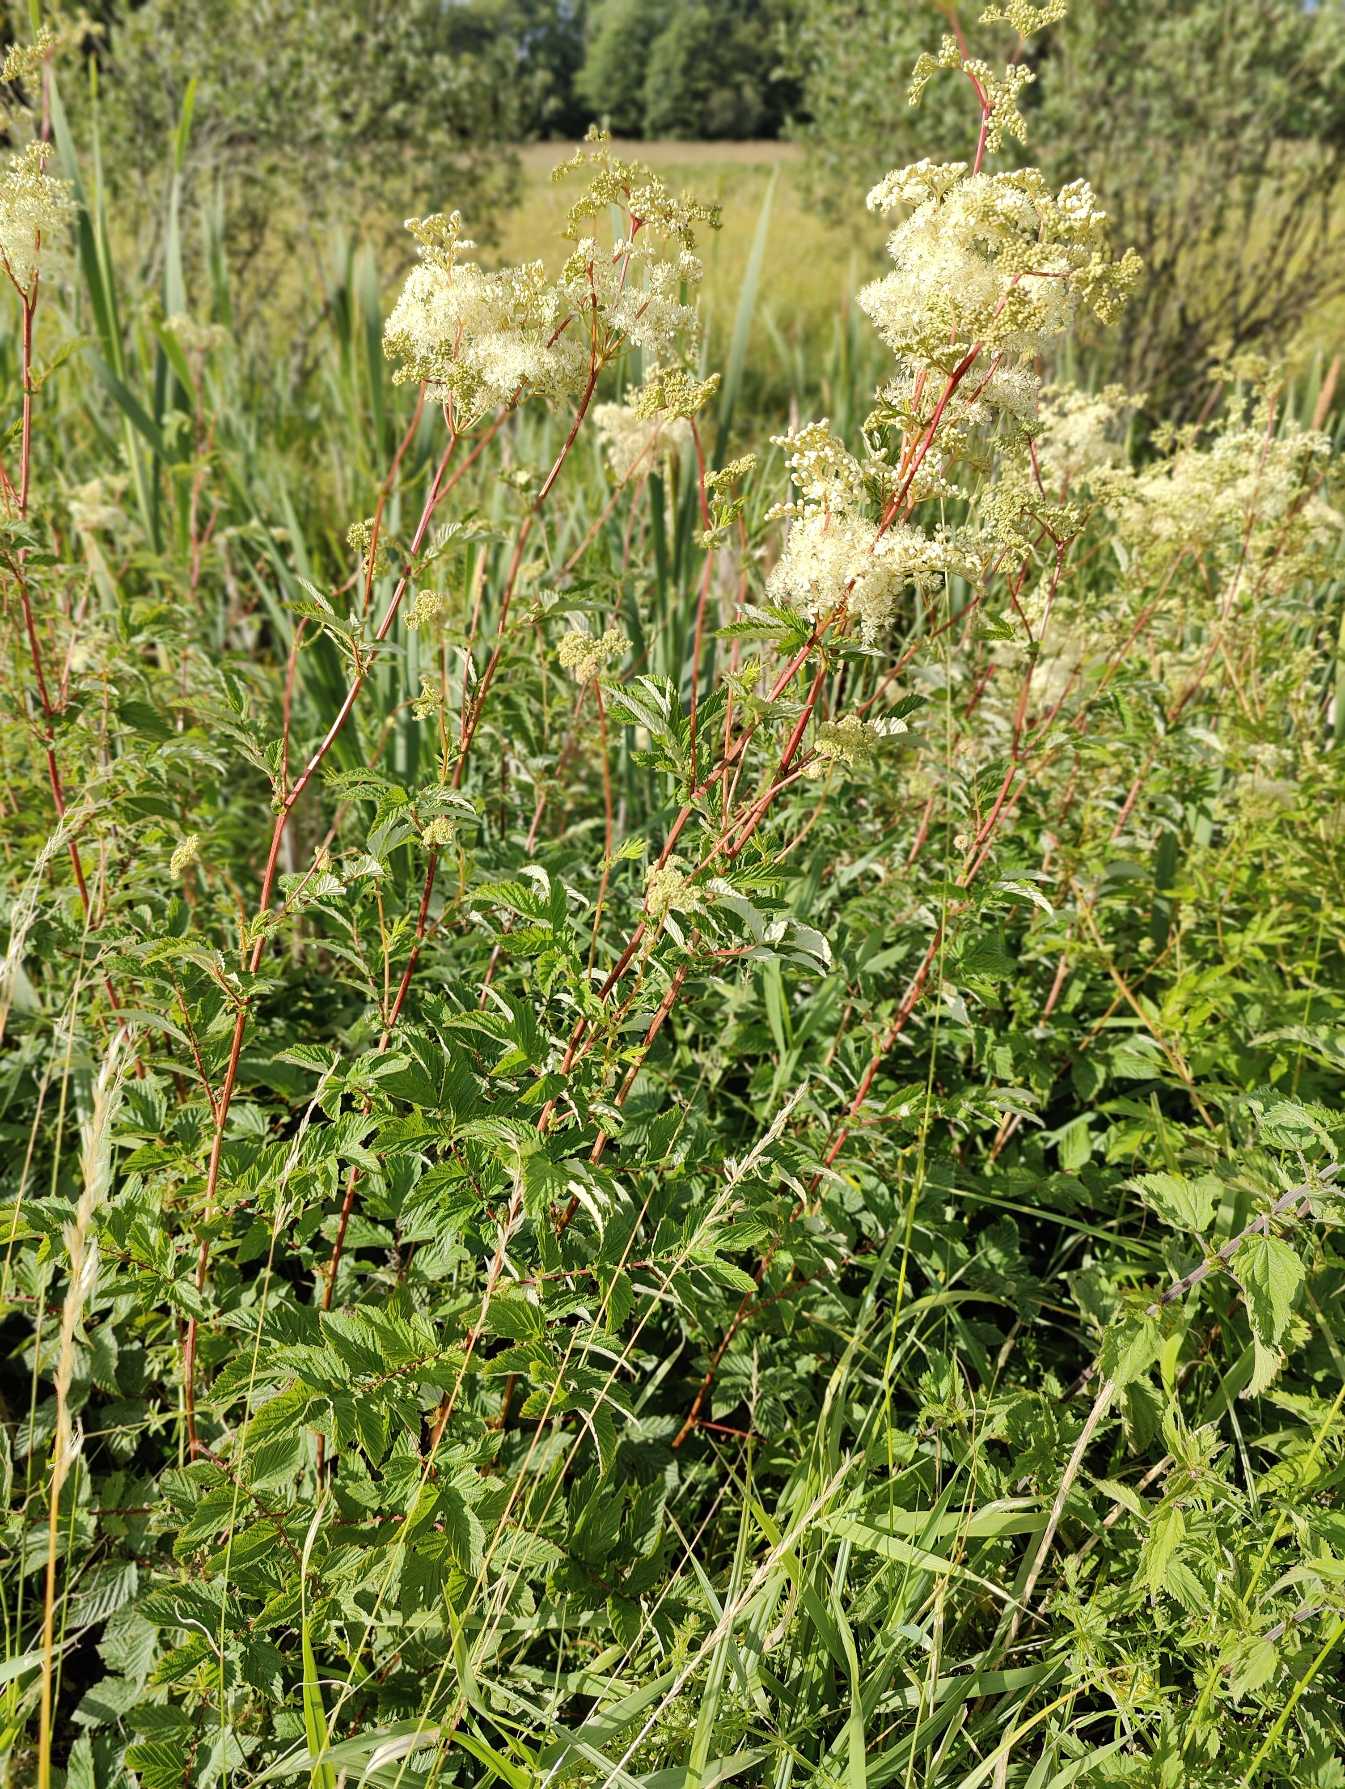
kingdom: Plantae
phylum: Tracheophyta
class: Magnoliopsida
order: Rosales
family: Rosaceae
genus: Filipendula
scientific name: Filipendula ulmaria
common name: Almindelig mjødurt
